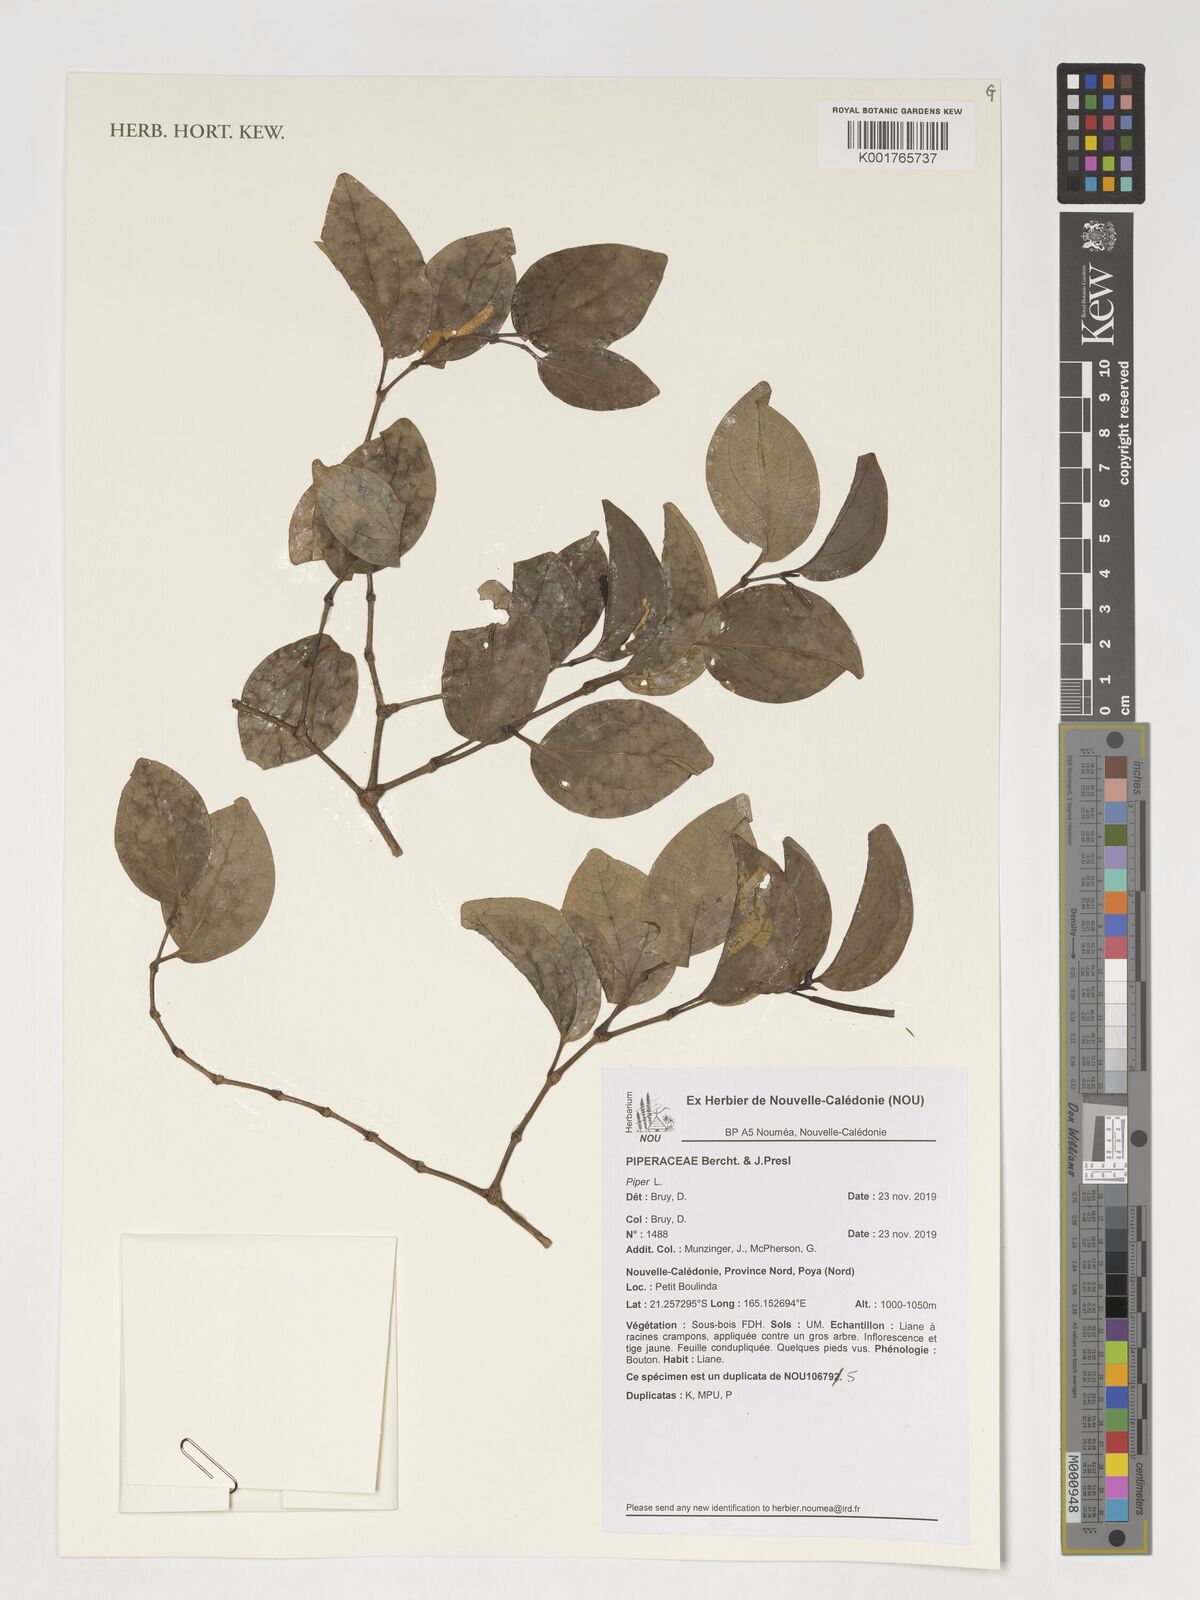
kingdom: Plantae
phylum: Tracheophyta
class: Magnoliopsida
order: Piperales
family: Piperaceae
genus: Piper
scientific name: Piper
